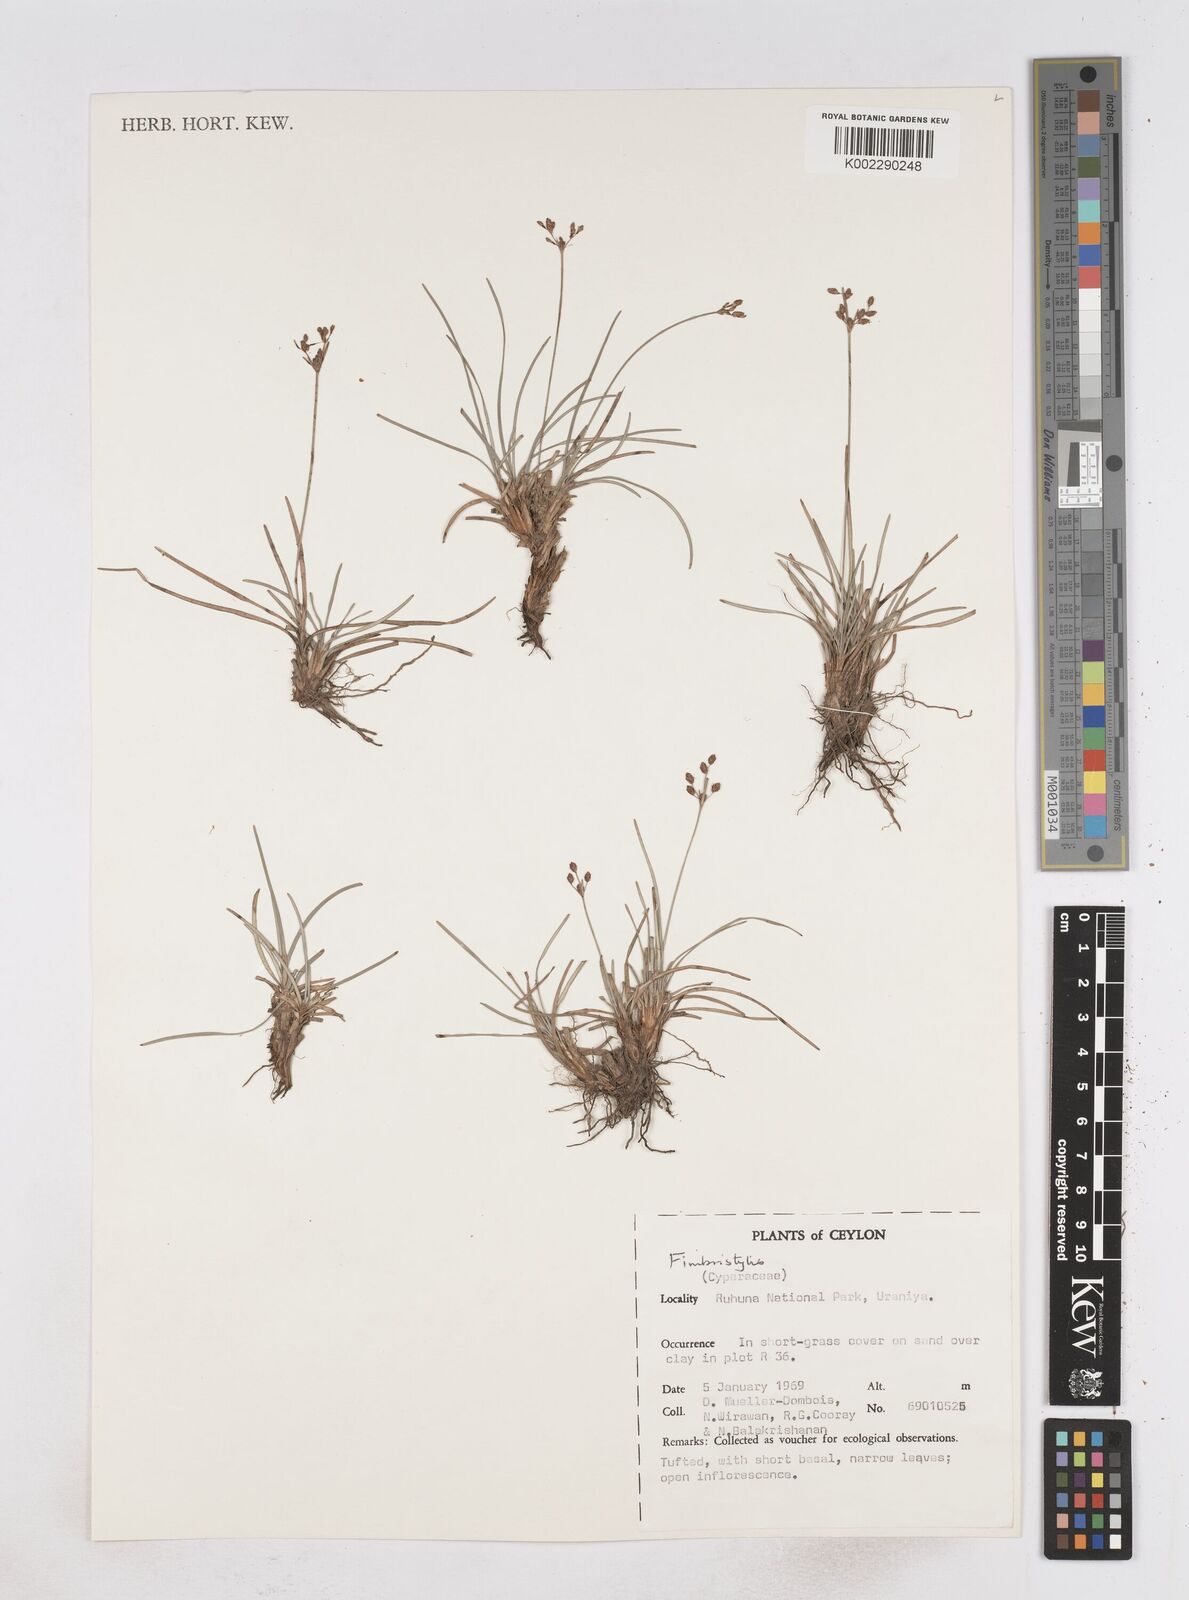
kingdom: Plantae
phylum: Tracheophyta
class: Liliopsida
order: Poales
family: Cyperaceae
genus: Fimbristylis
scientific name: Fimbristylis
